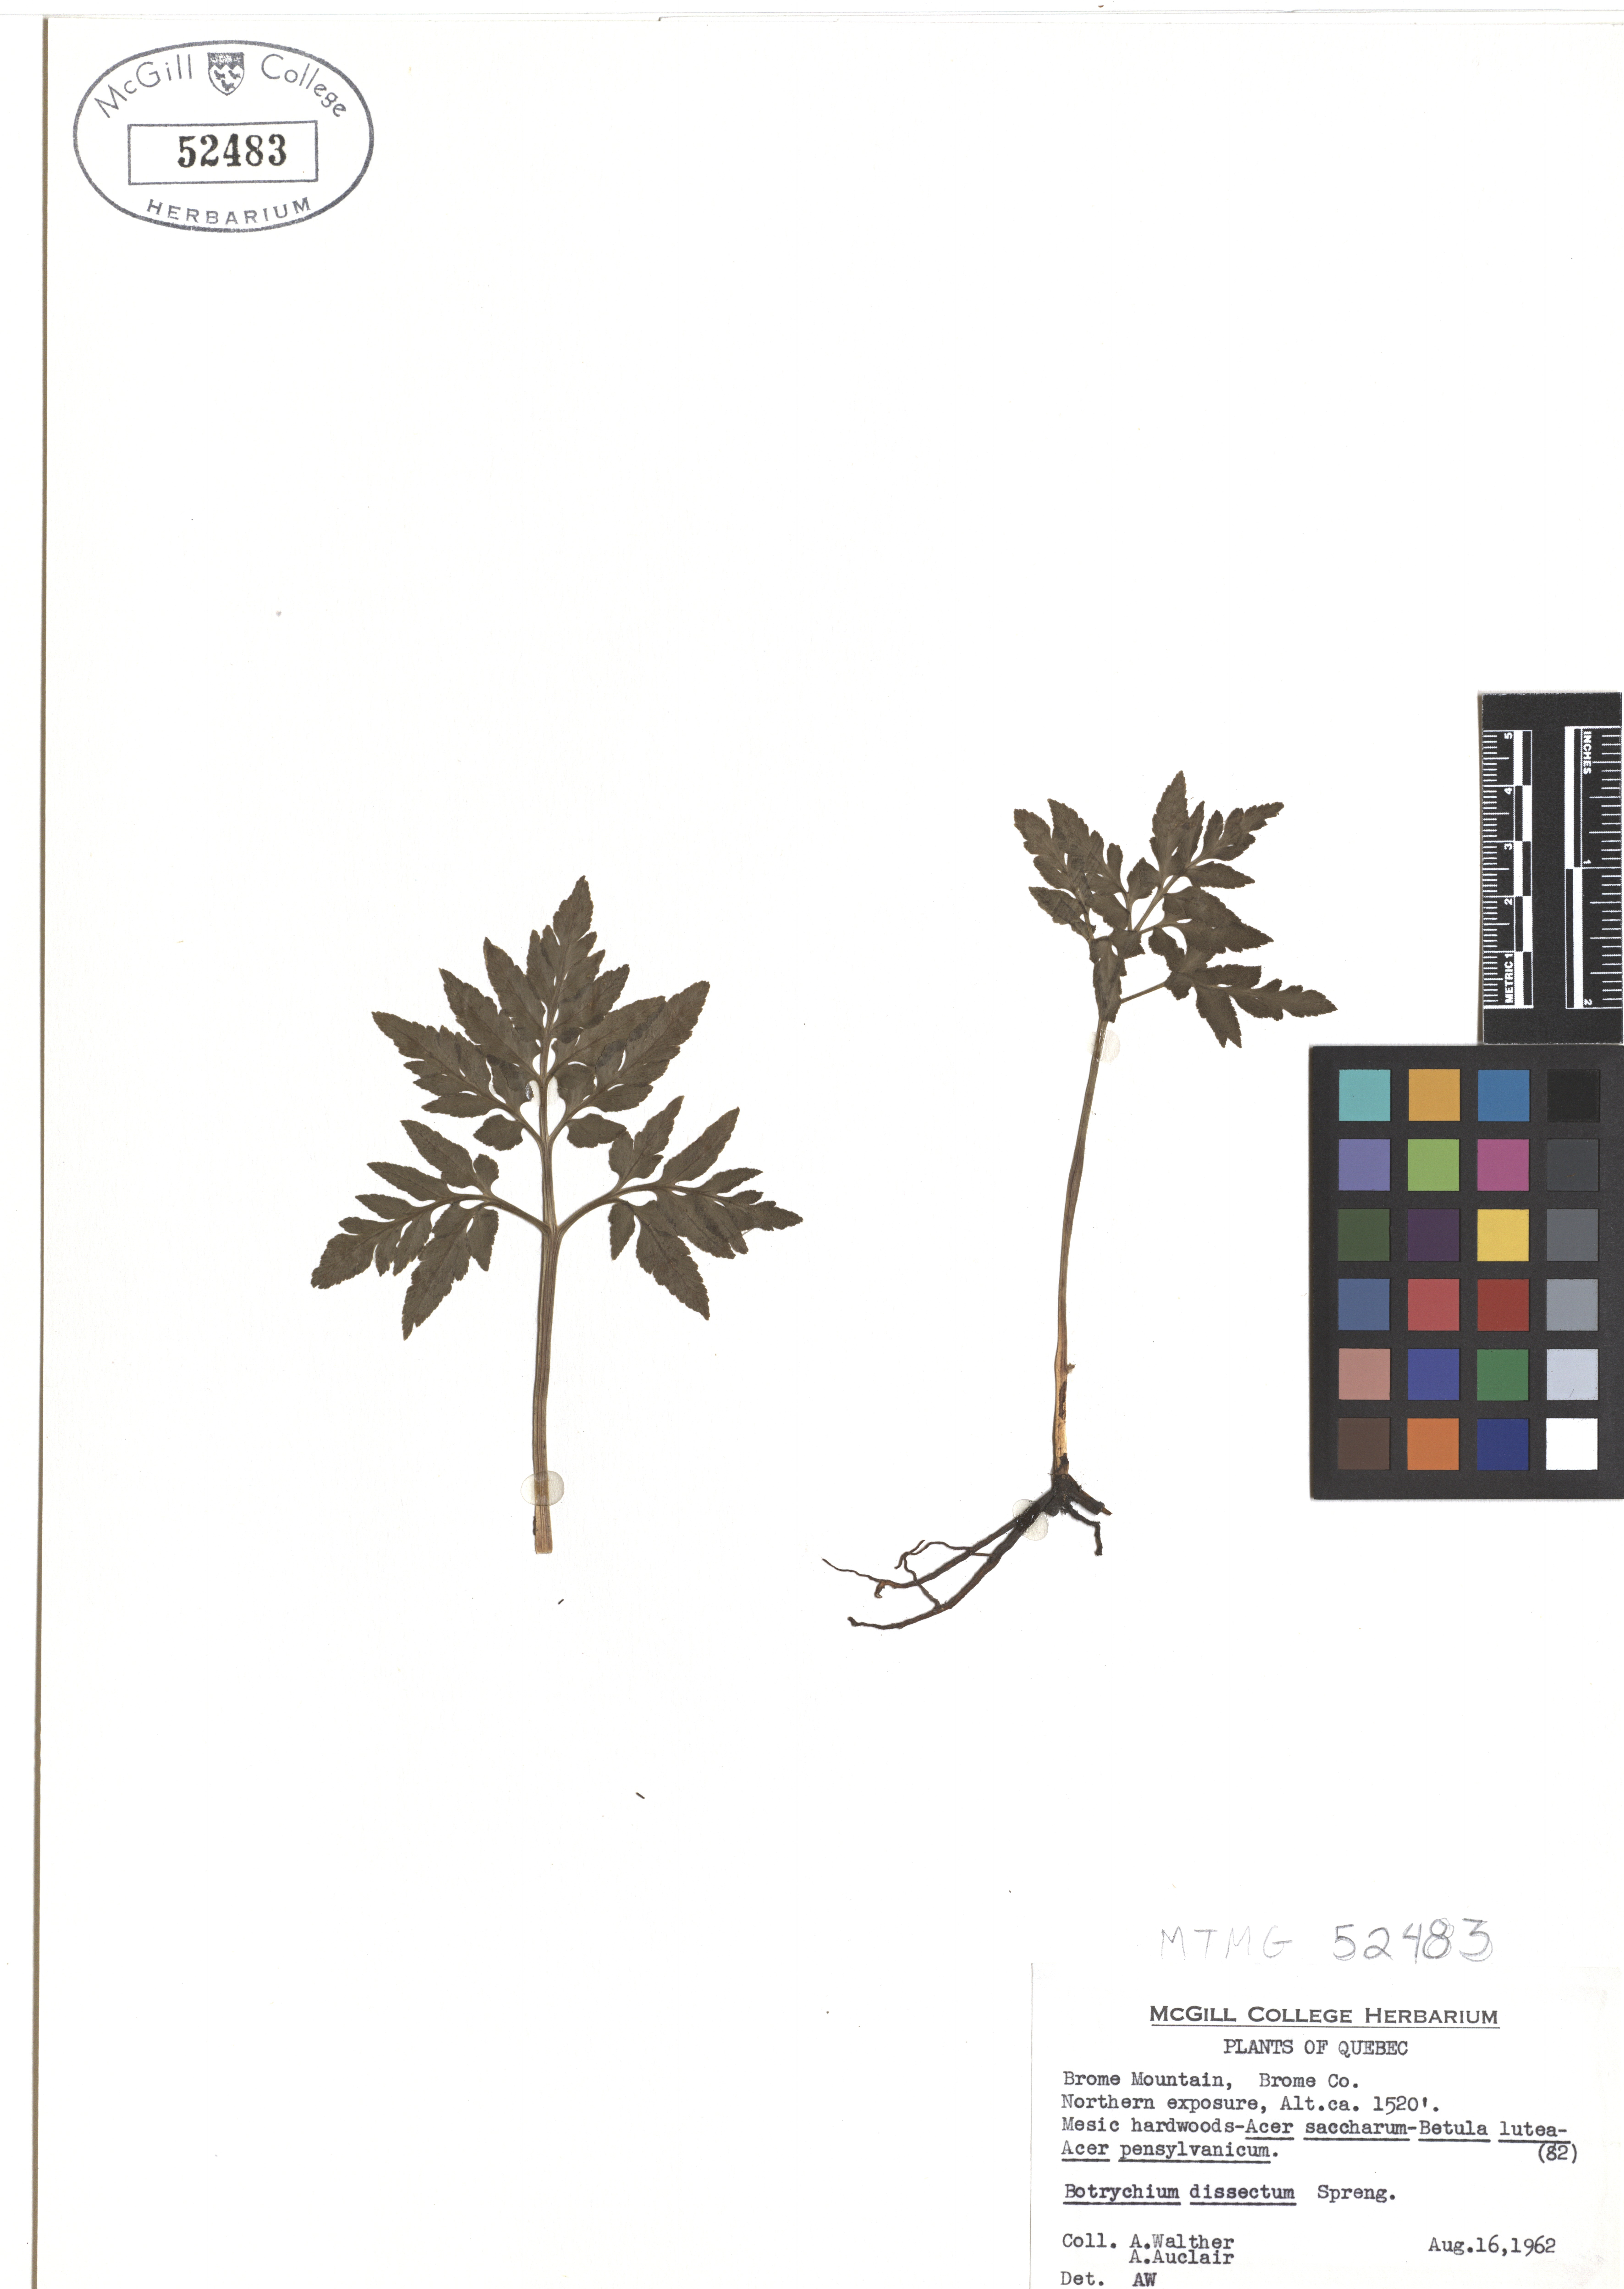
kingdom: Plantae
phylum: Tracheophyta
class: Polypodiopsida
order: Ophioglossales
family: Ophioglossaceae
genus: Sceptridium
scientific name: Sceptridium dissectum
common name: Cut-leaved grapefern
